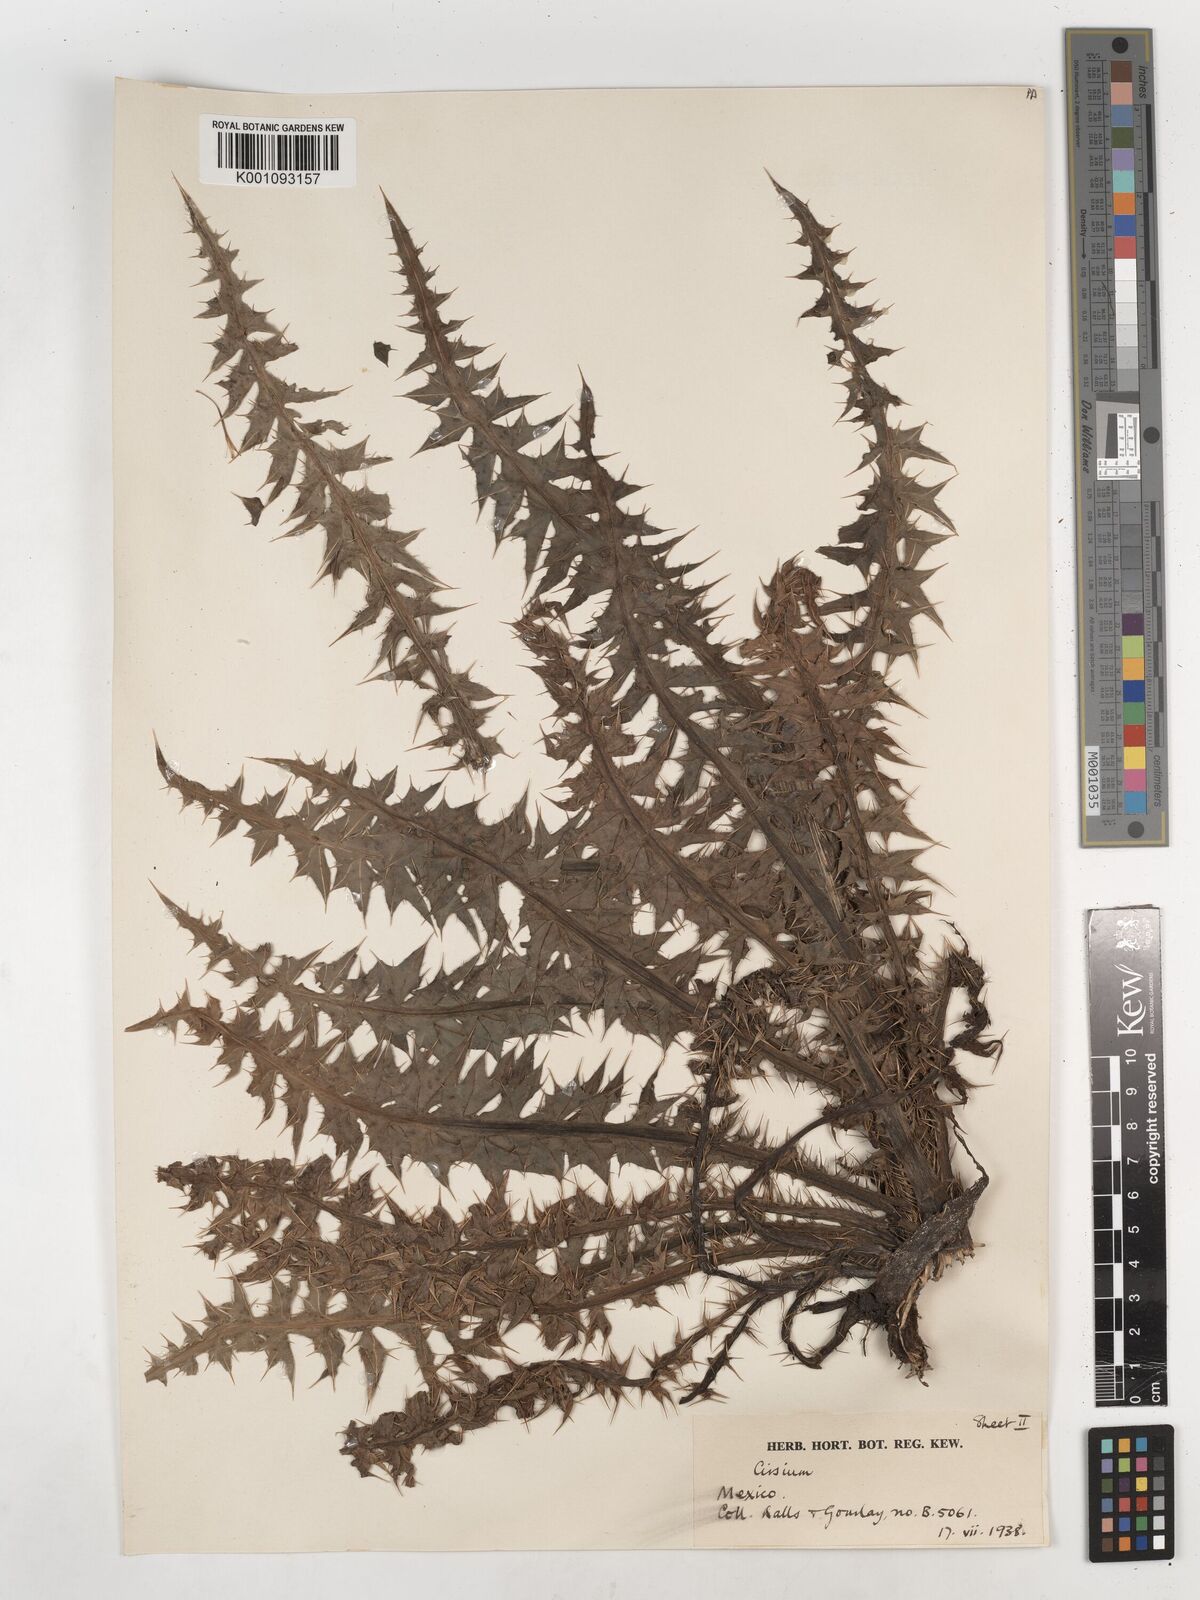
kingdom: Plantae
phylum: Tracheophyta
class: Magnoliopsida
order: Asterales
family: Asteraceae
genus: Cirsium
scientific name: Cirsium
